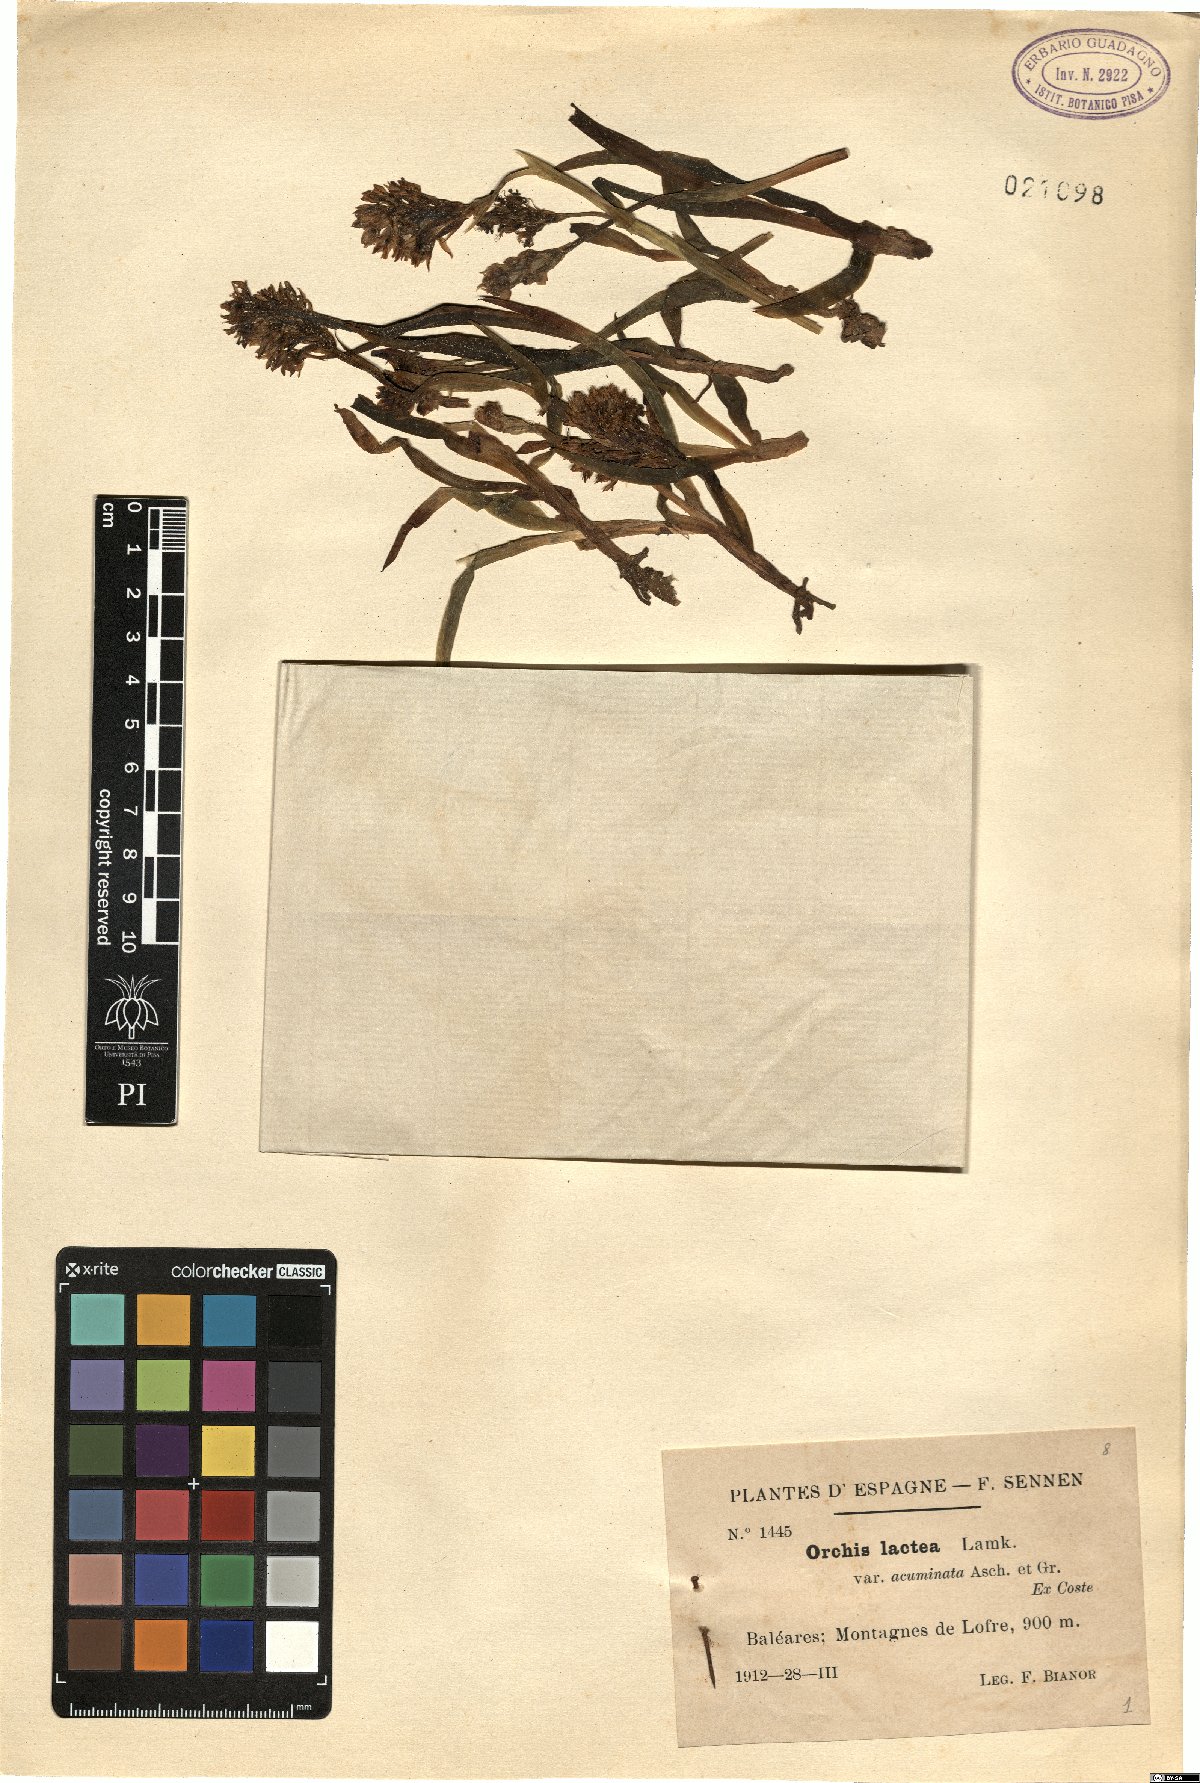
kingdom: Plantae
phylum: Tracheophyta
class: Liliopsida
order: Asparagales
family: Orchidaceae
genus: Neotinea
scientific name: Neotinea lactea
